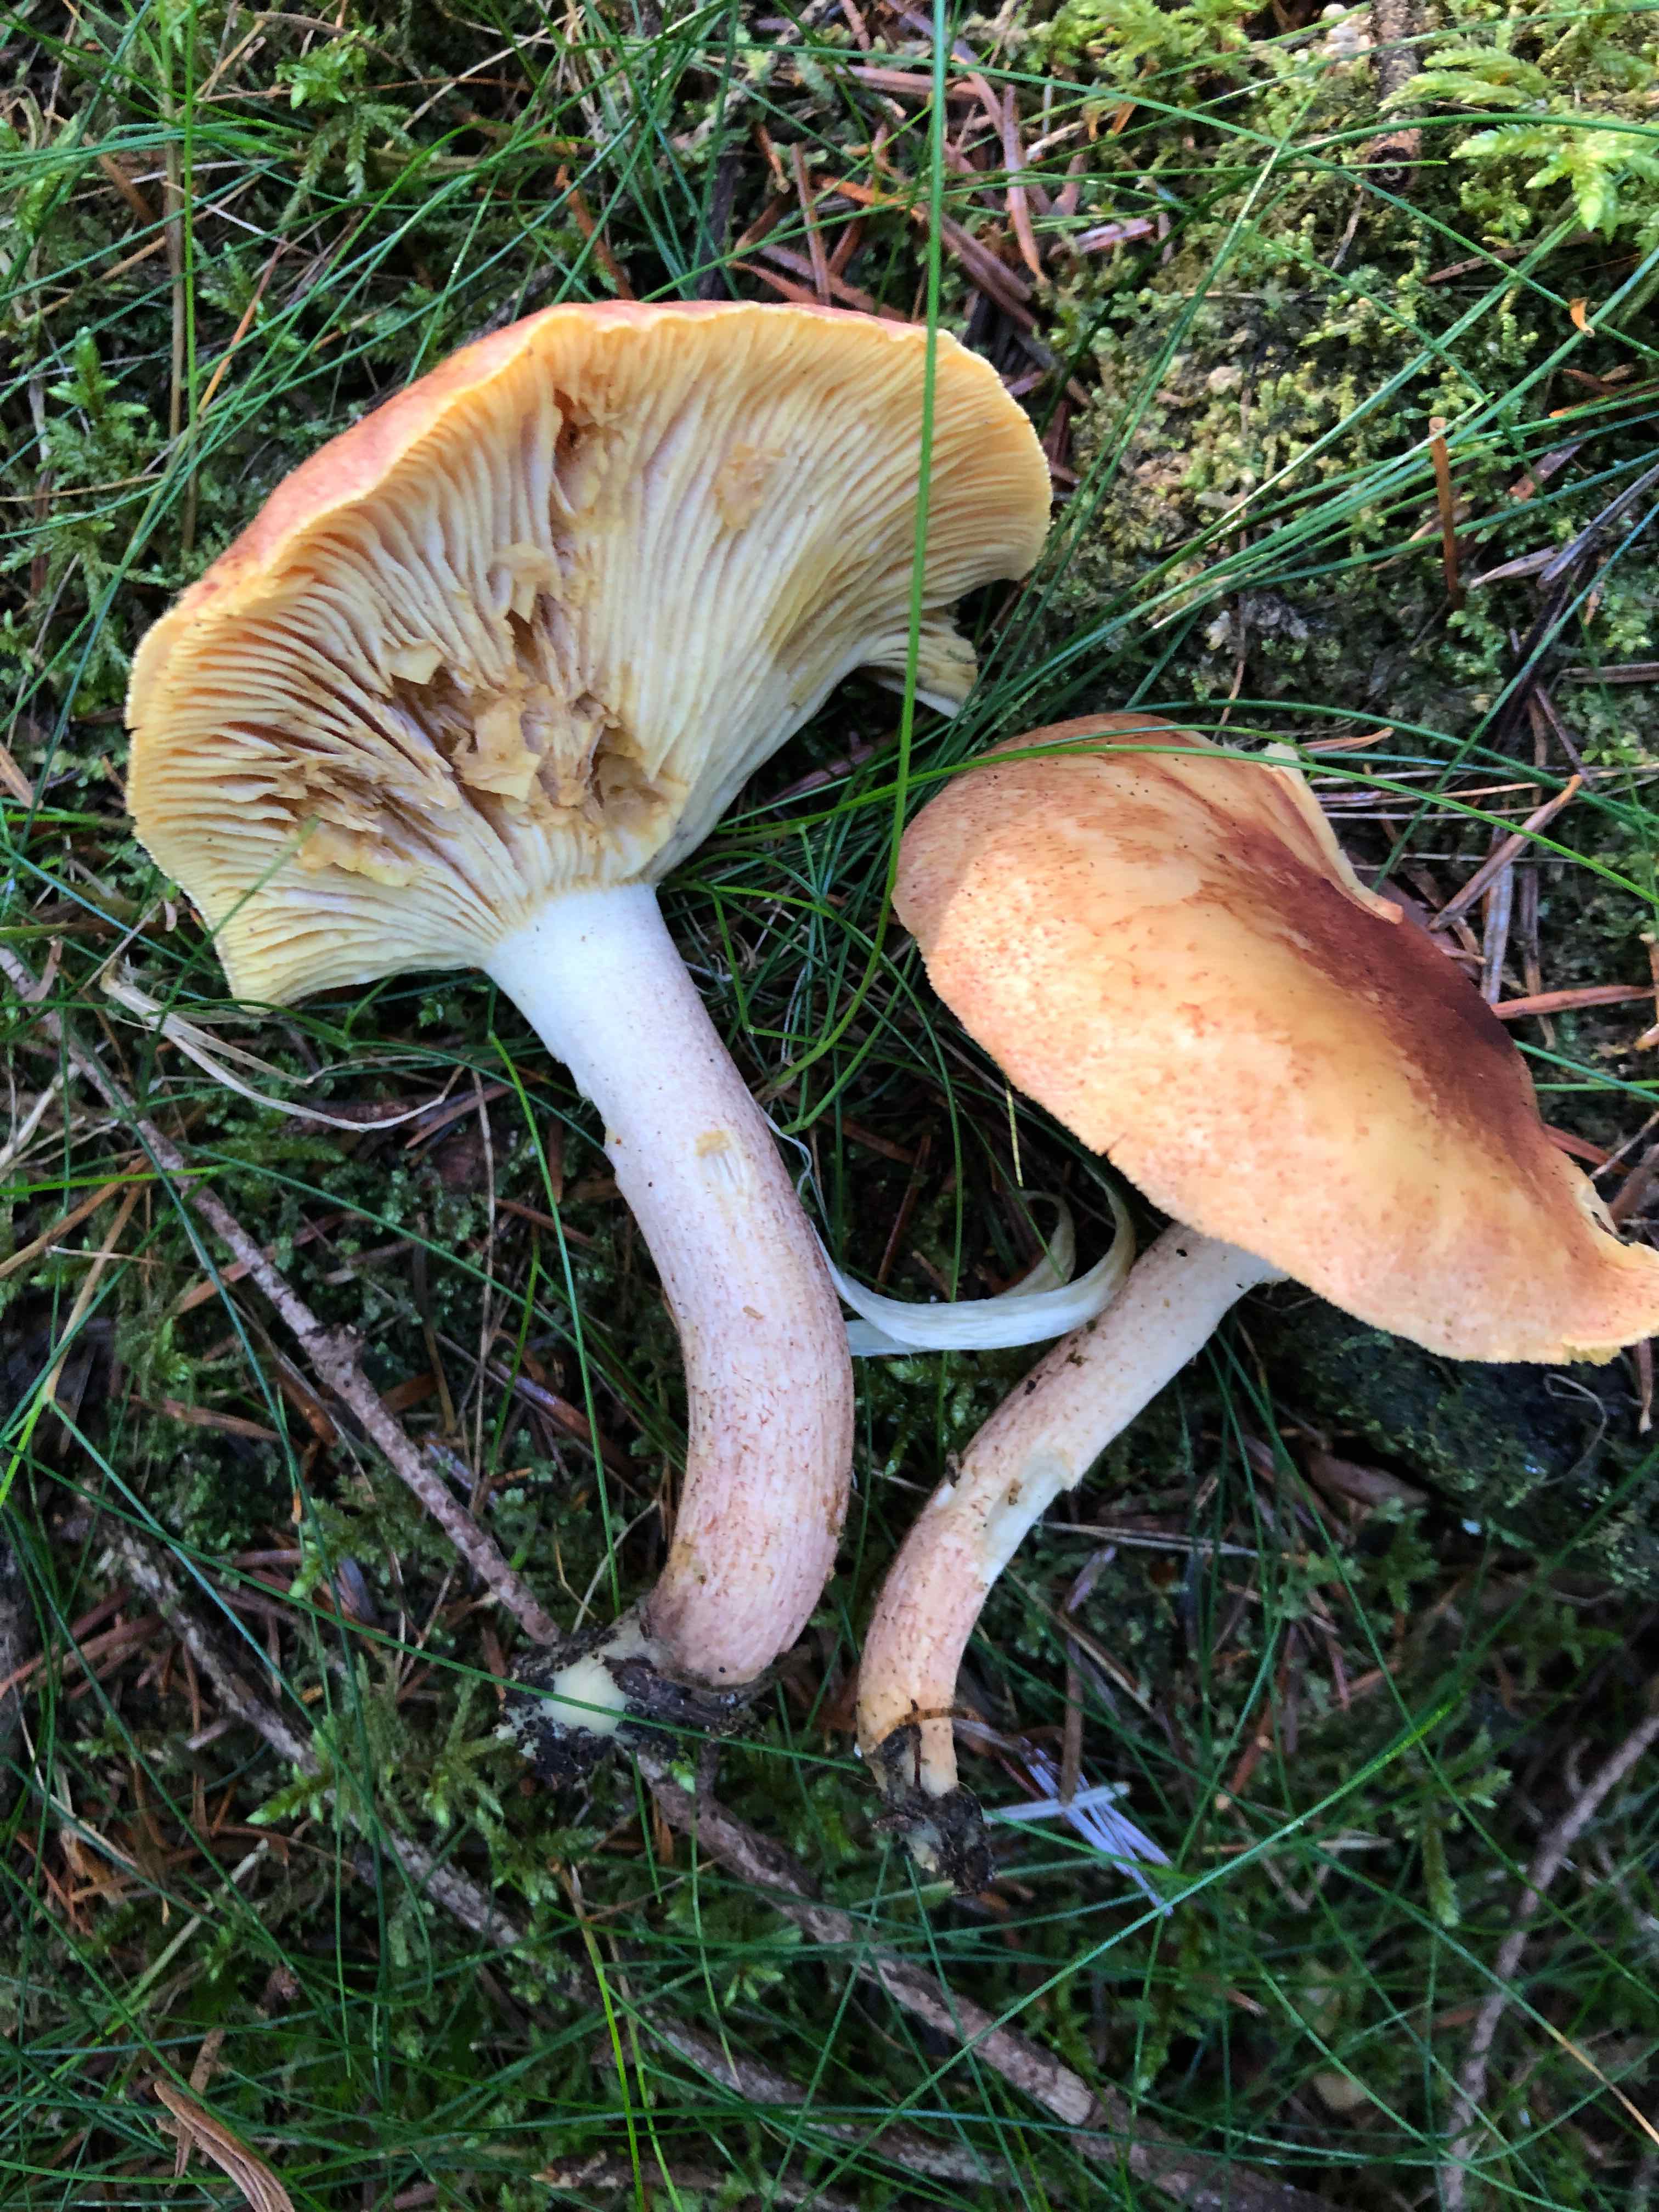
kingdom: Fungi
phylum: Basidiomycota
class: Agaricomycetes
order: Agaricales
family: Tricholomataceae
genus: Tricholomopsis
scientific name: Tricholomopsis rutilans
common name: purpur-væbnerhat
